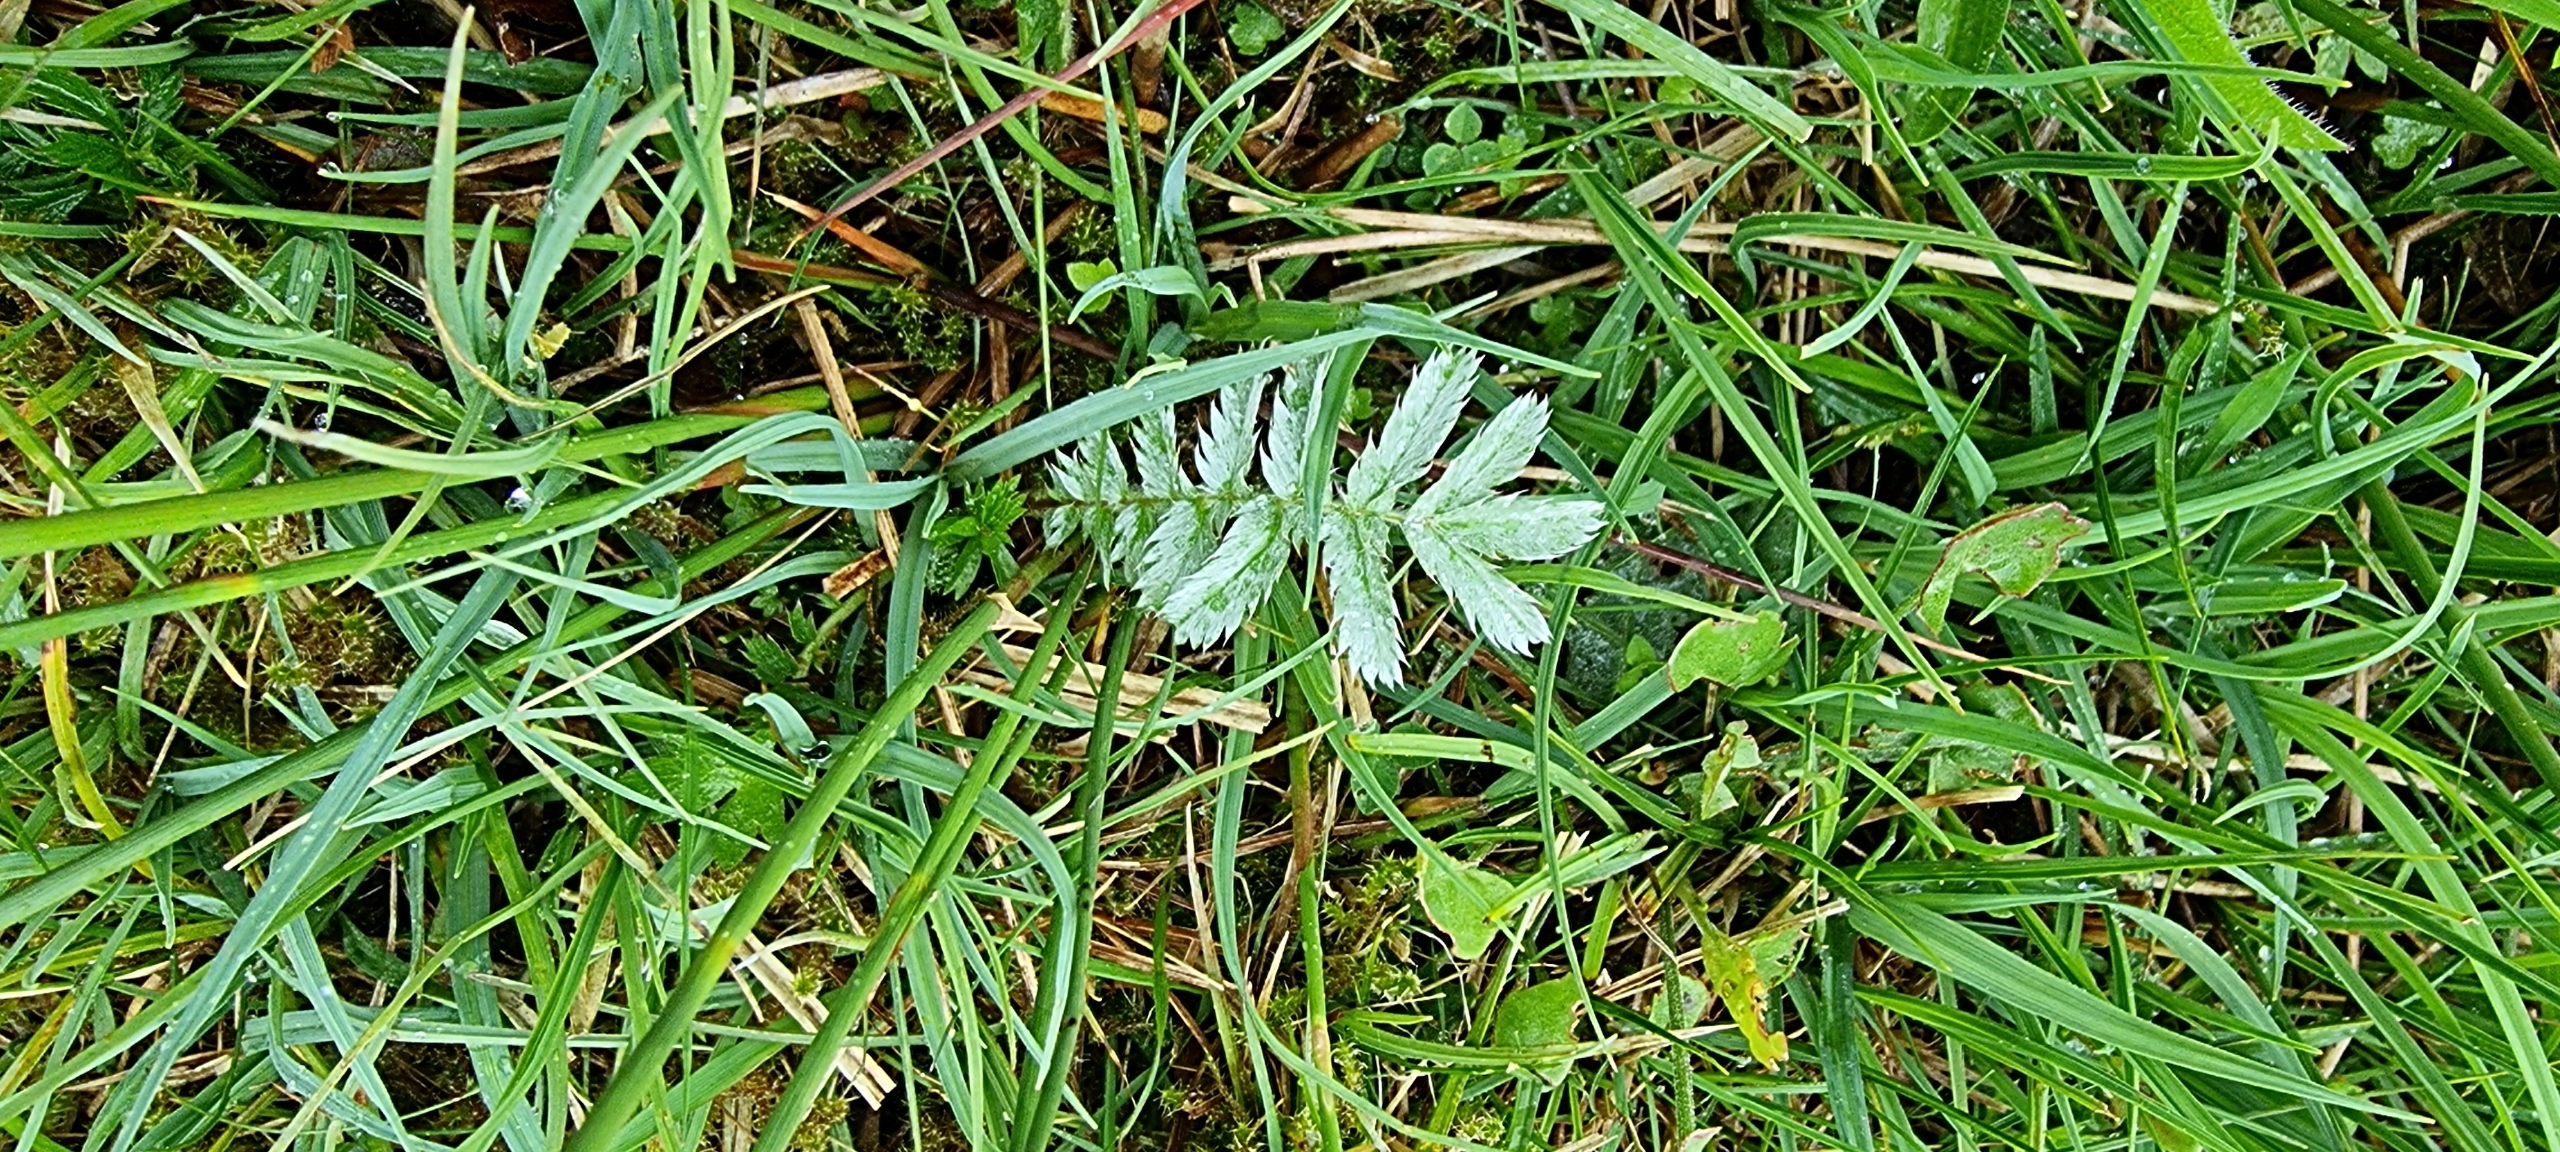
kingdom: Plantae
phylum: Tracheophyta
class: Magnoliopsida
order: Rosales
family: Rosaceae
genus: Argentina
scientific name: Argentina anserina
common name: Gåsepotentil
